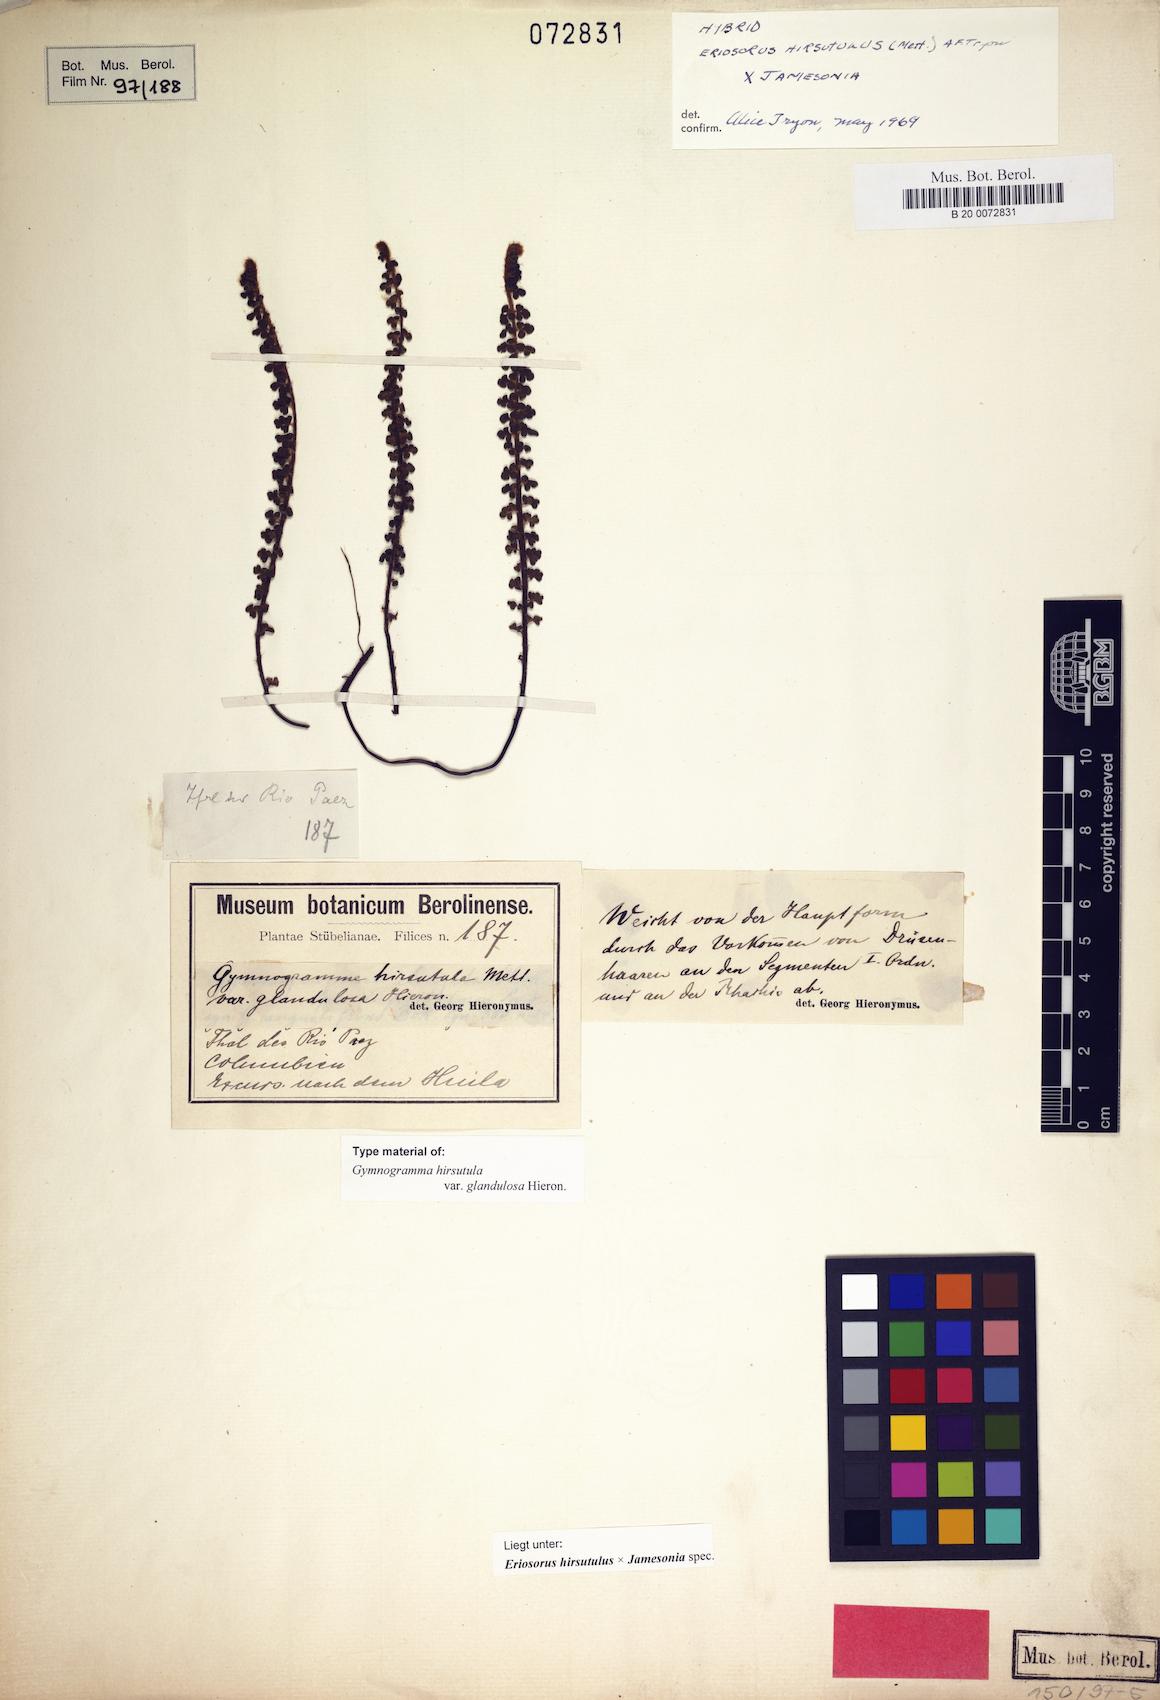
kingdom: Plantae
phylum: Tracheophyta
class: Polypodiopsida
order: Polypodiales
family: Pteridaceae
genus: Jamesonia
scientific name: Jamesonia hirsutula
